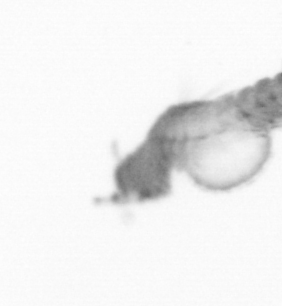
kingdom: Animalia
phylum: Annelida
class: Polychaeta
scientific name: Polychaeta
